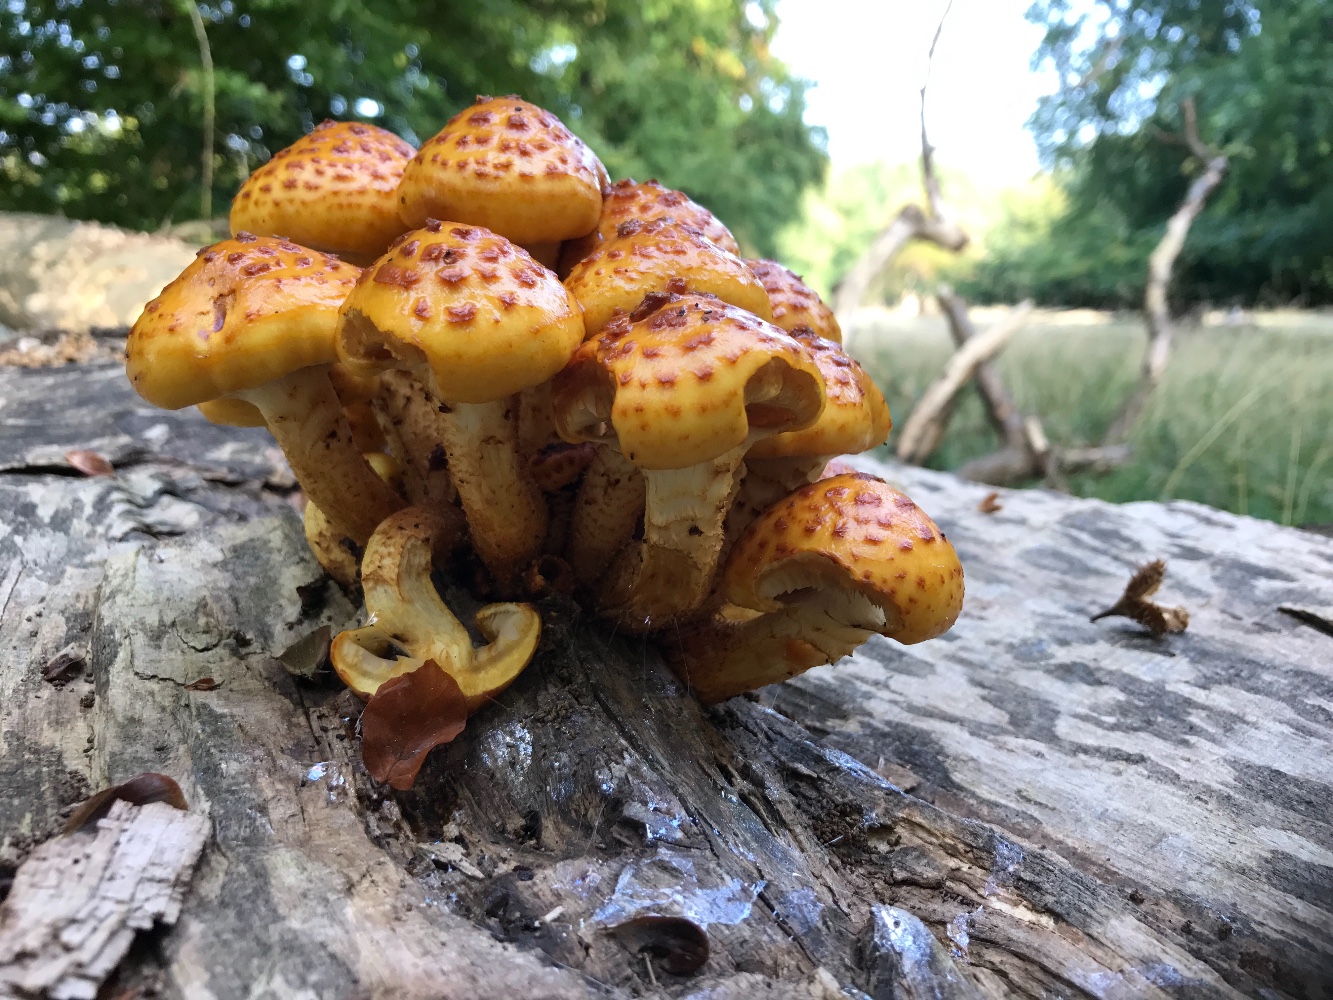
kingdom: Fungi
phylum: Basidiomycota
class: Agaricomycetes
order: Agaricales
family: Strophariaceae
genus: Pholiota
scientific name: Pholiota adiposa
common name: højtsiddende skælhat
